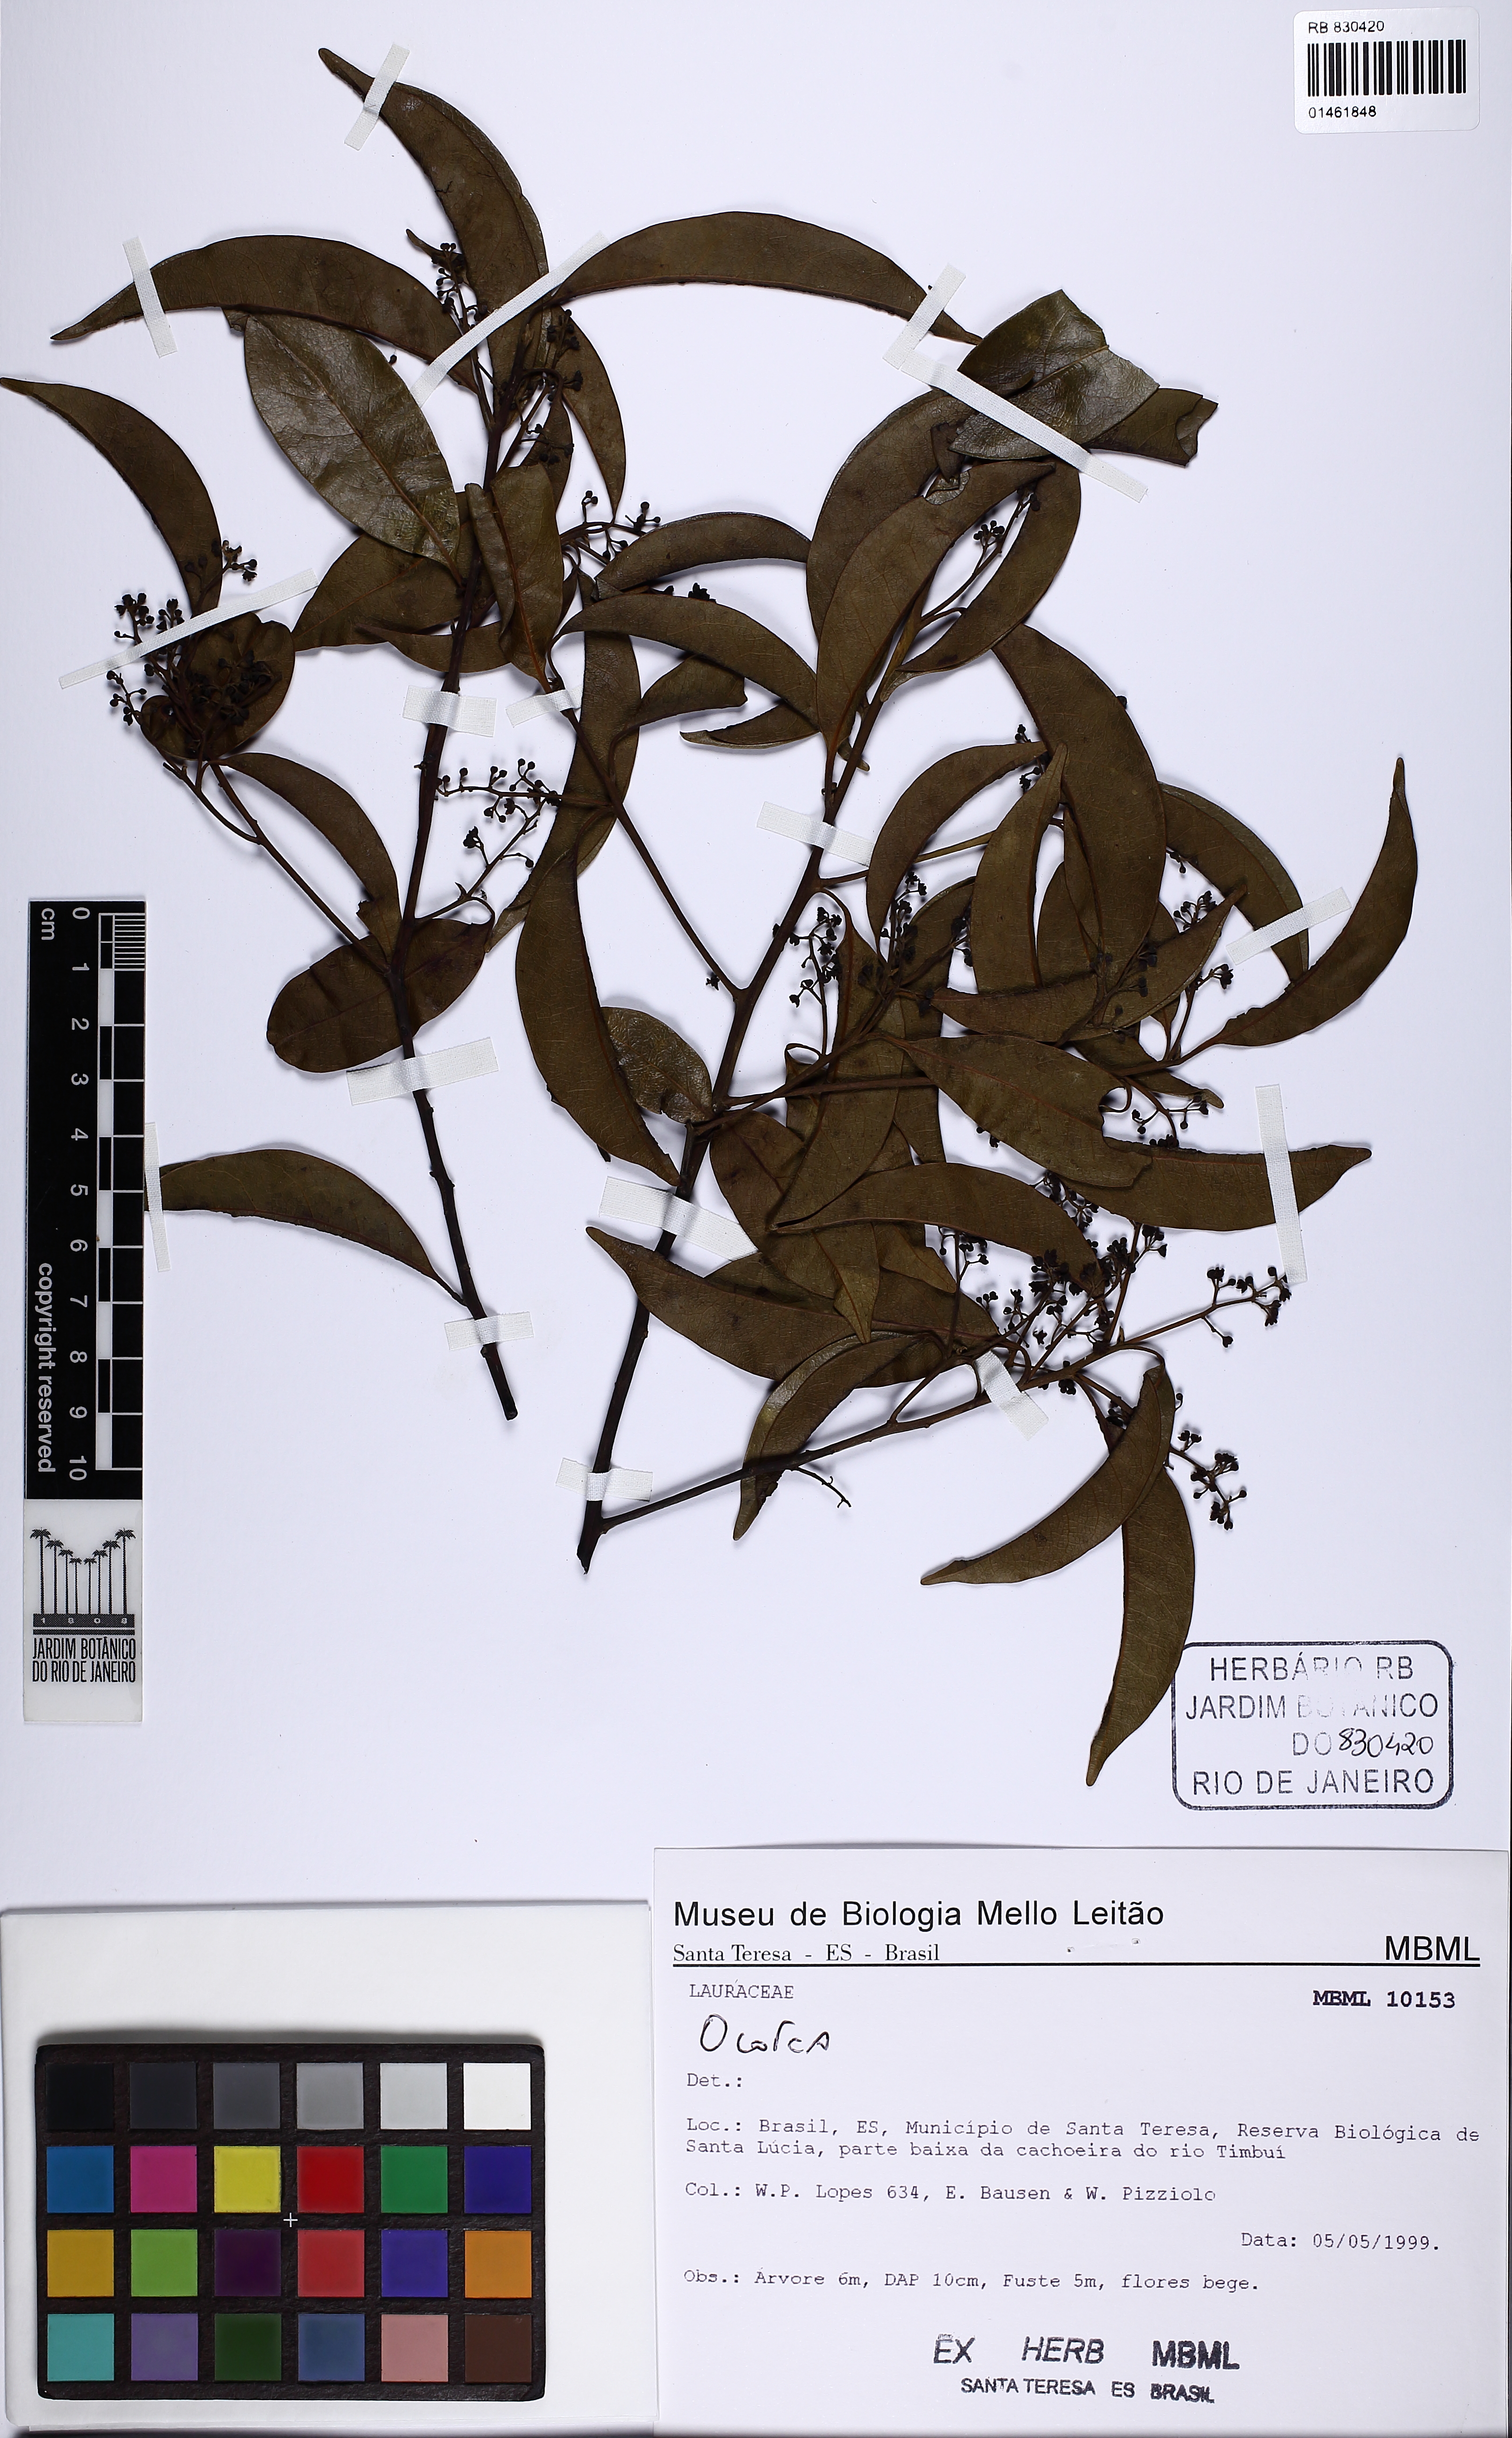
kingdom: Plantae
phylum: Tracheophyta
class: Magnoliopsida
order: Laurales
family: Lauraceae
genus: Ocotea
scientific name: Ocotea
